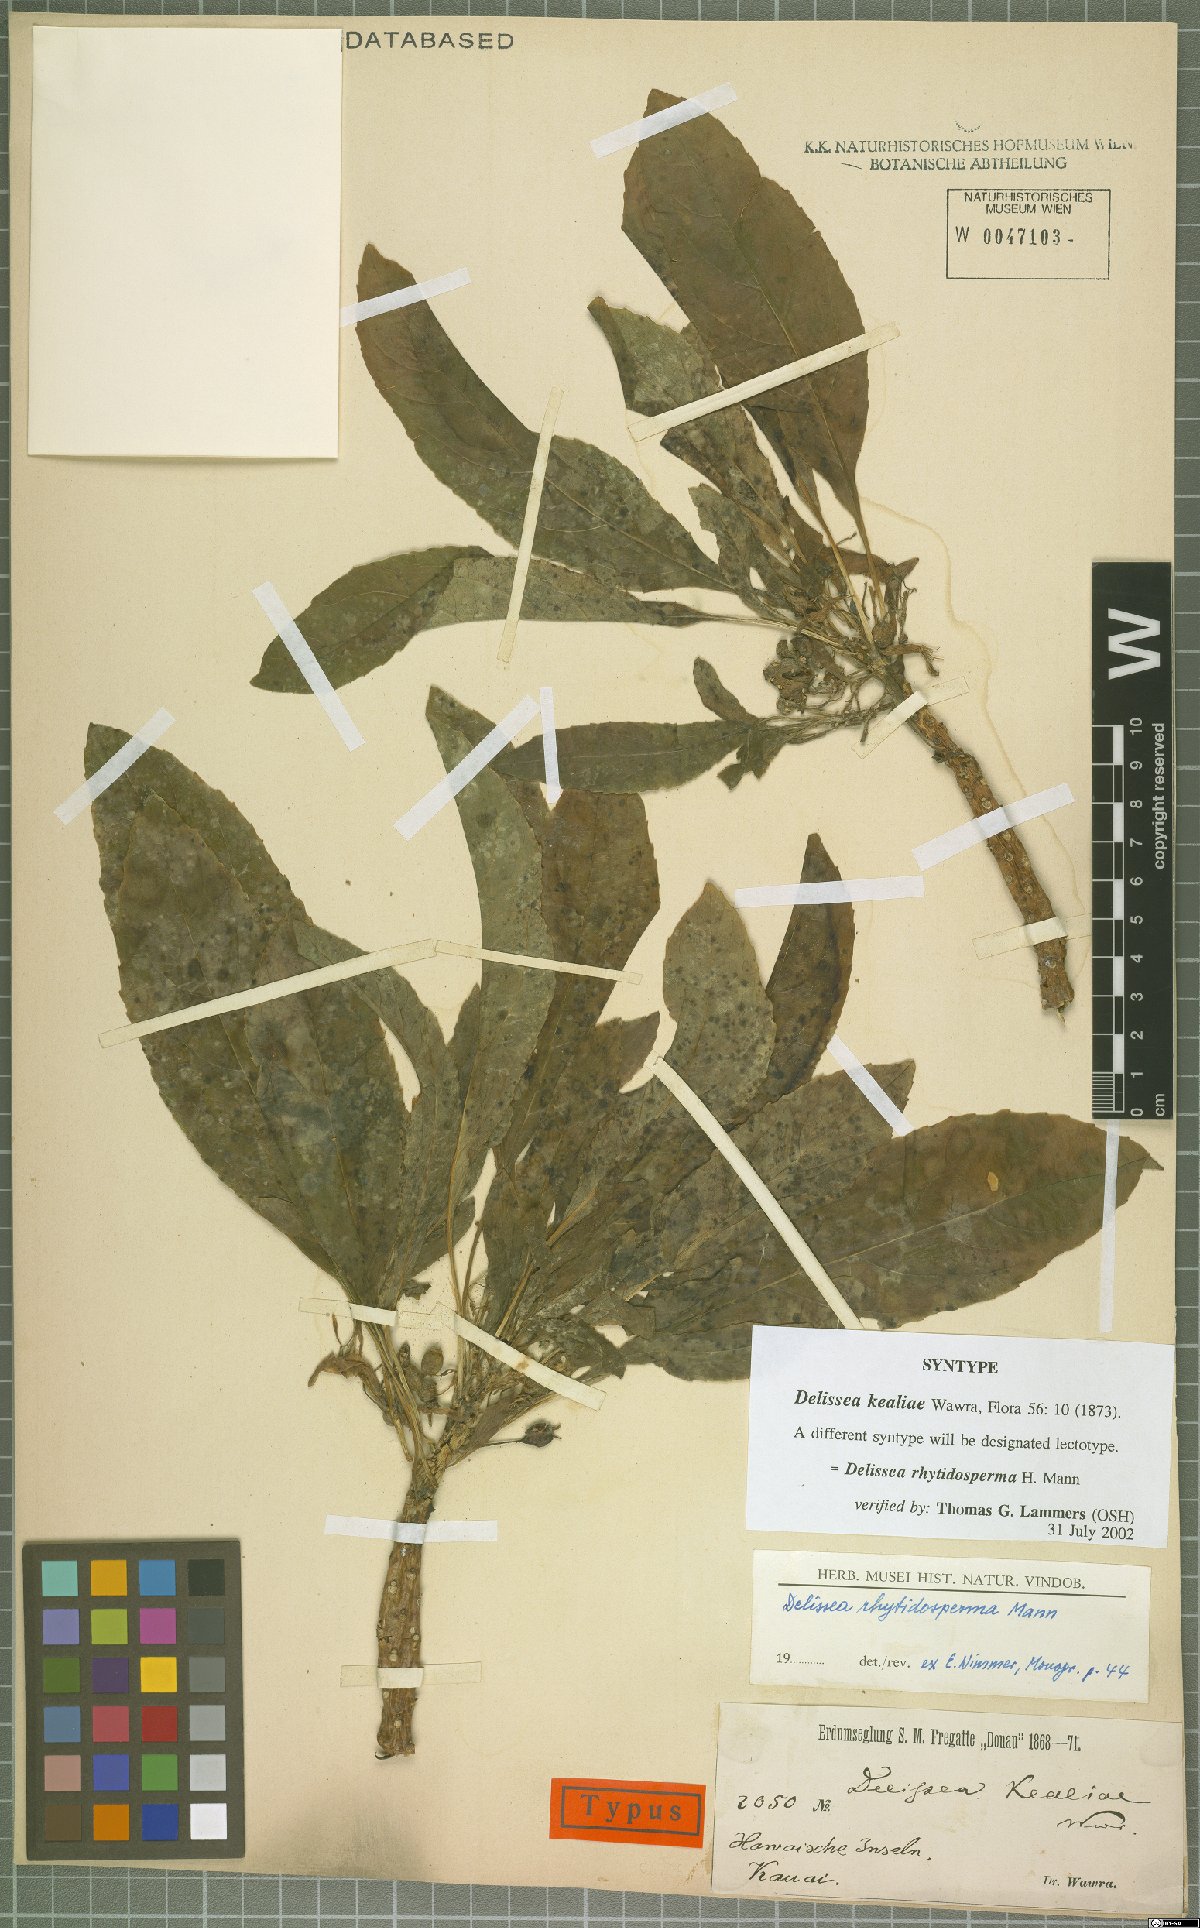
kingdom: Plantae
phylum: Tracheophyta
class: Magnoliopsida
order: Asterales
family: Campanulaceae
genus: Delissea
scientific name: Delissea rhytidosperma
